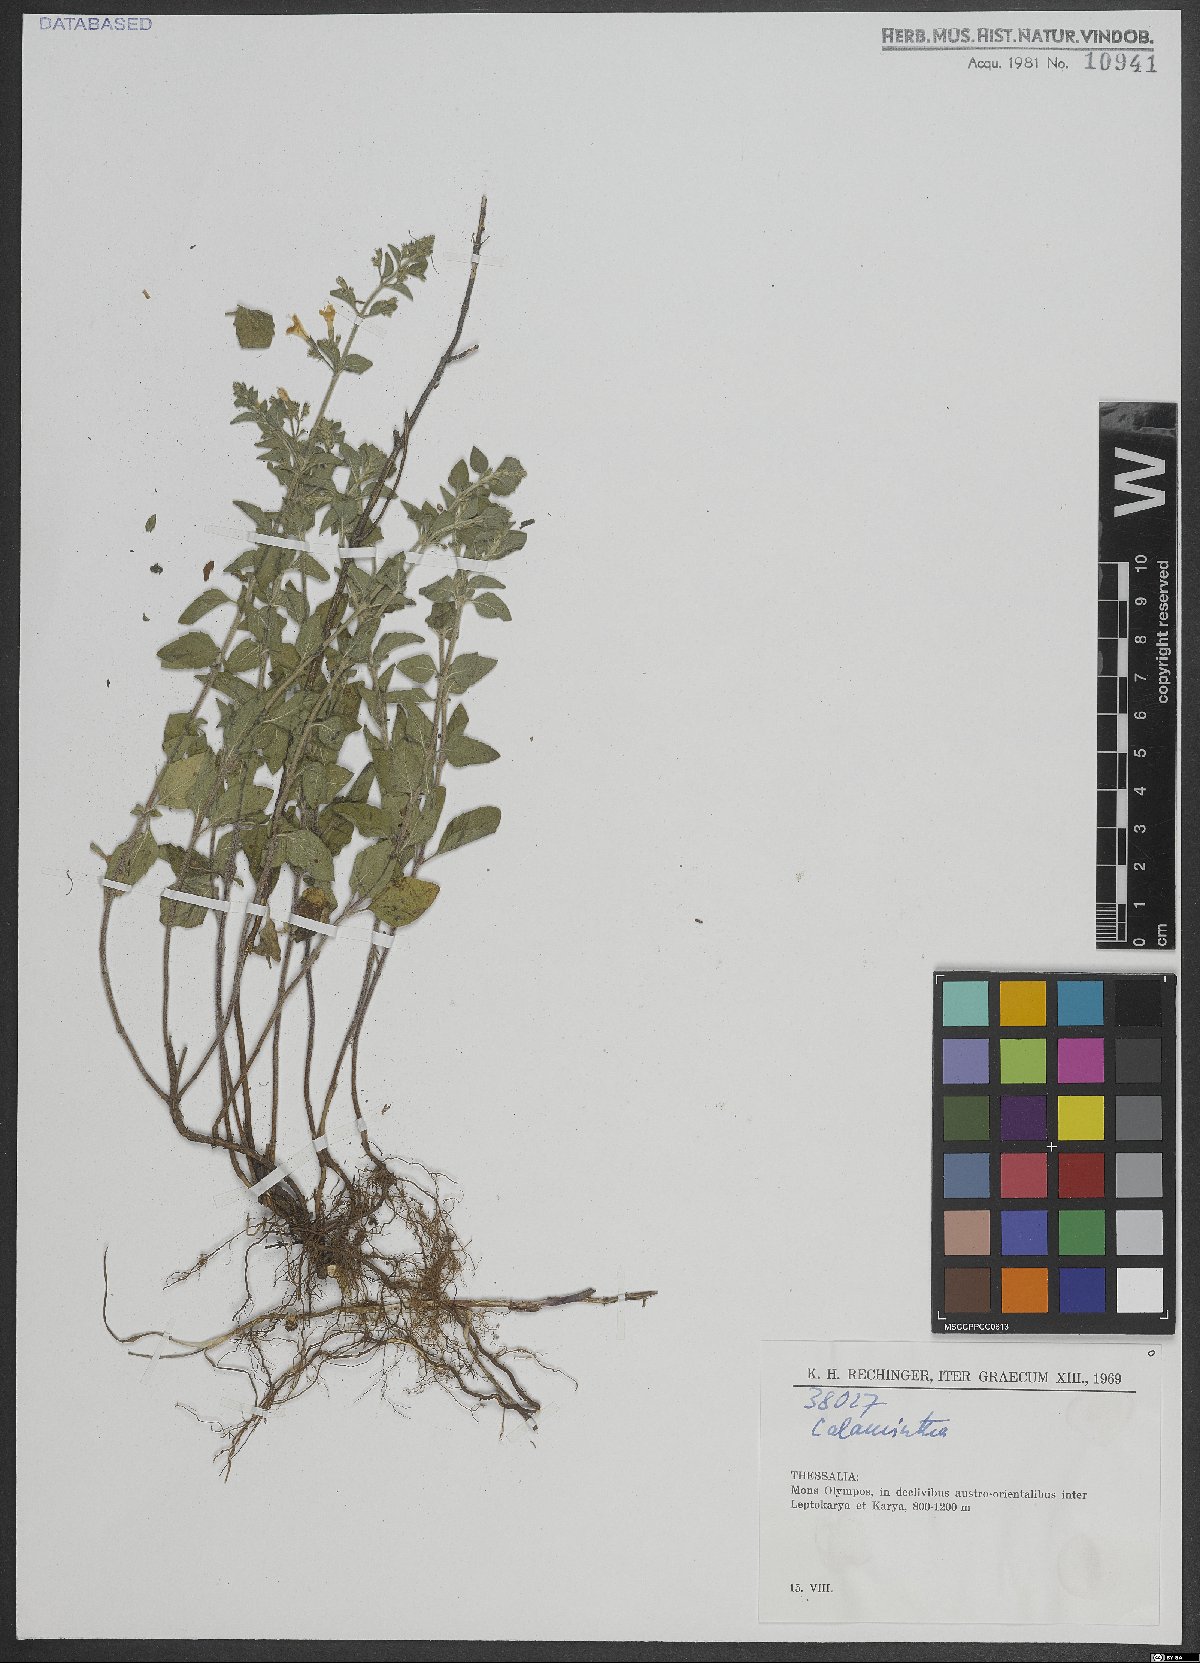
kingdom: Plantae
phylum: Tracheophyta
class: Magnoliopsida
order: Lamiales
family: Lamiaceae
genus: Calamintha
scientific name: Calamintha
